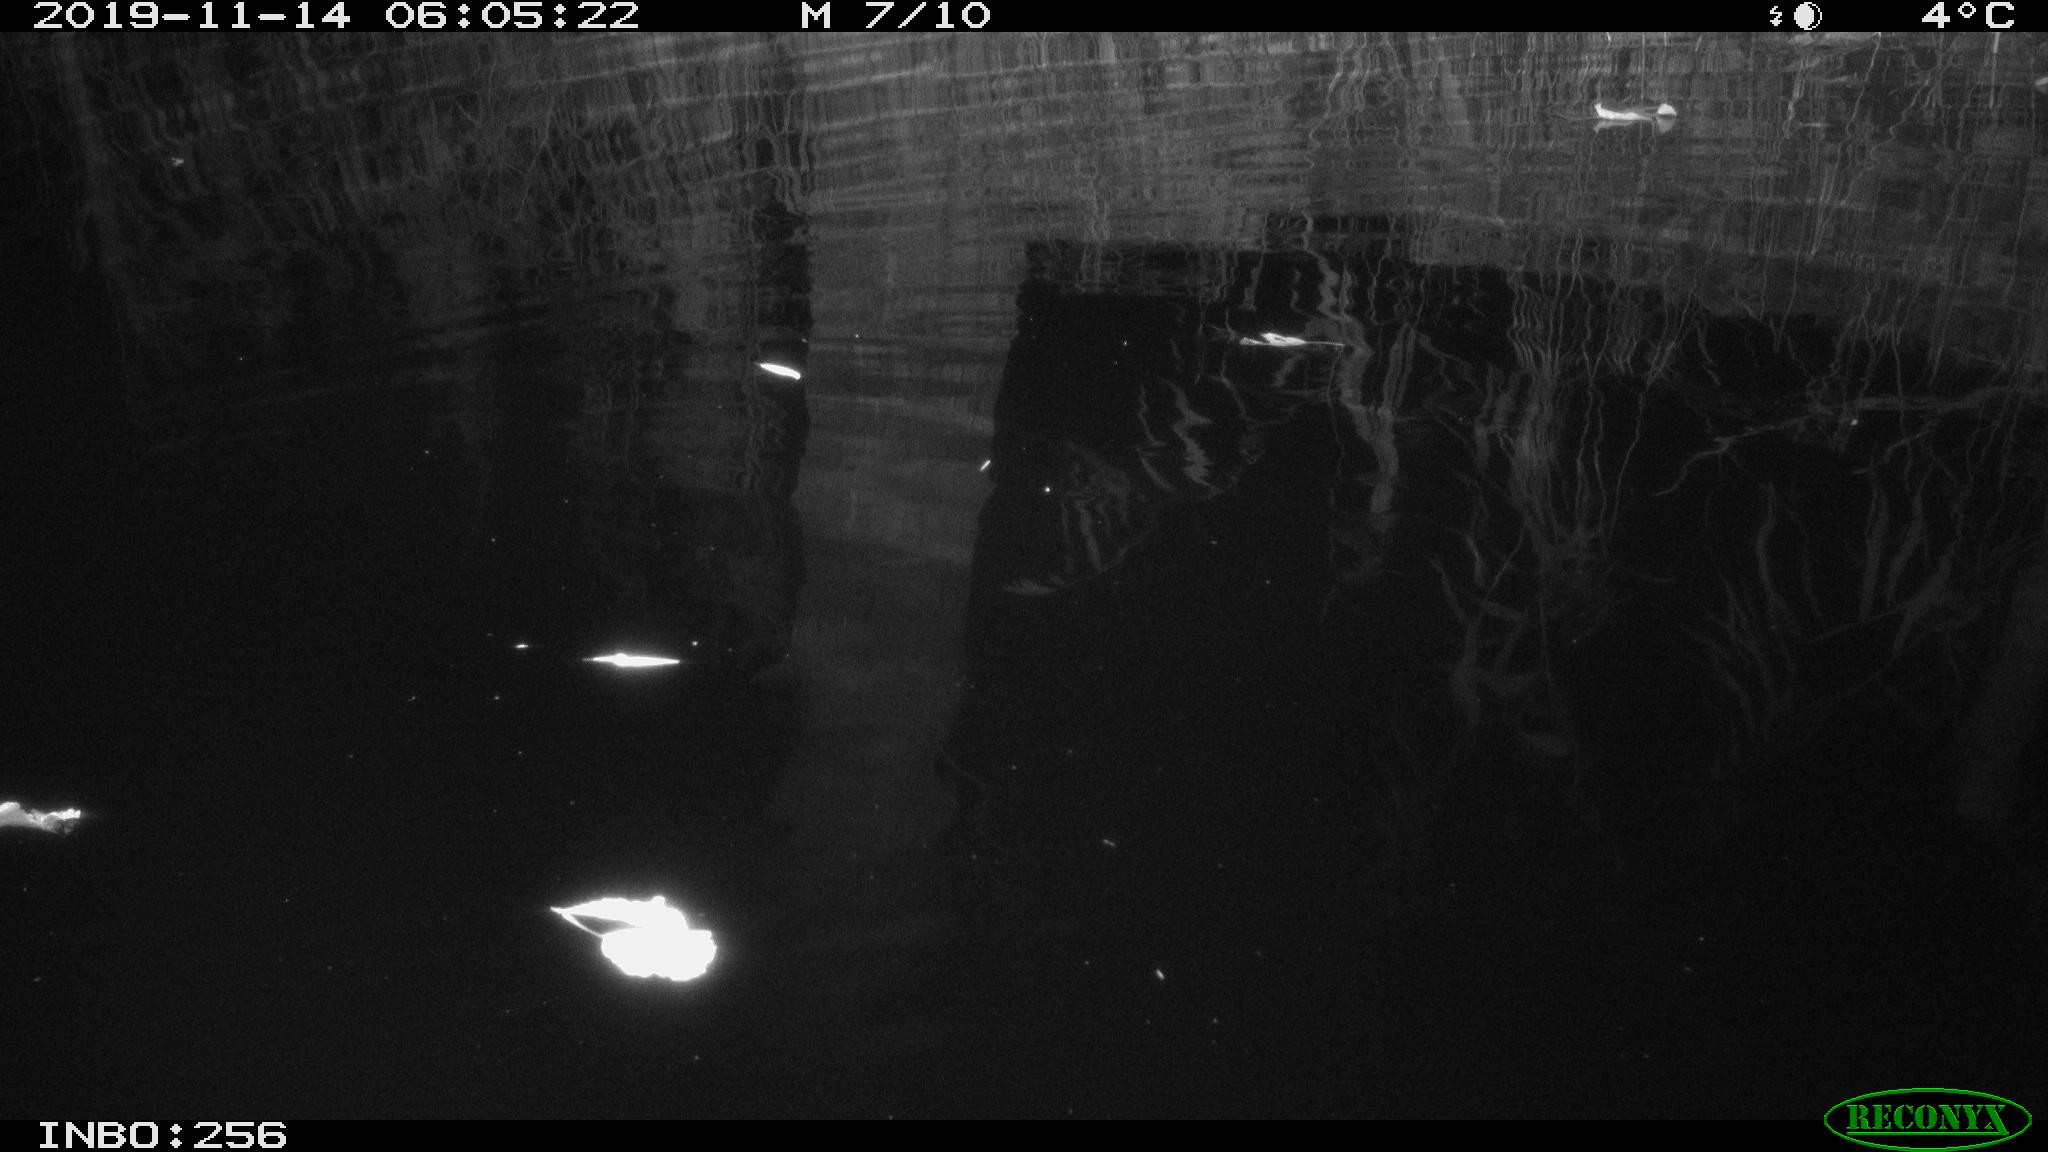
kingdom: Animalia
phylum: Chordata
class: Mammalia
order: Rodentia
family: Muridae
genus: Rattus
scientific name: Rattus norvegicus
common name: Brown rat
